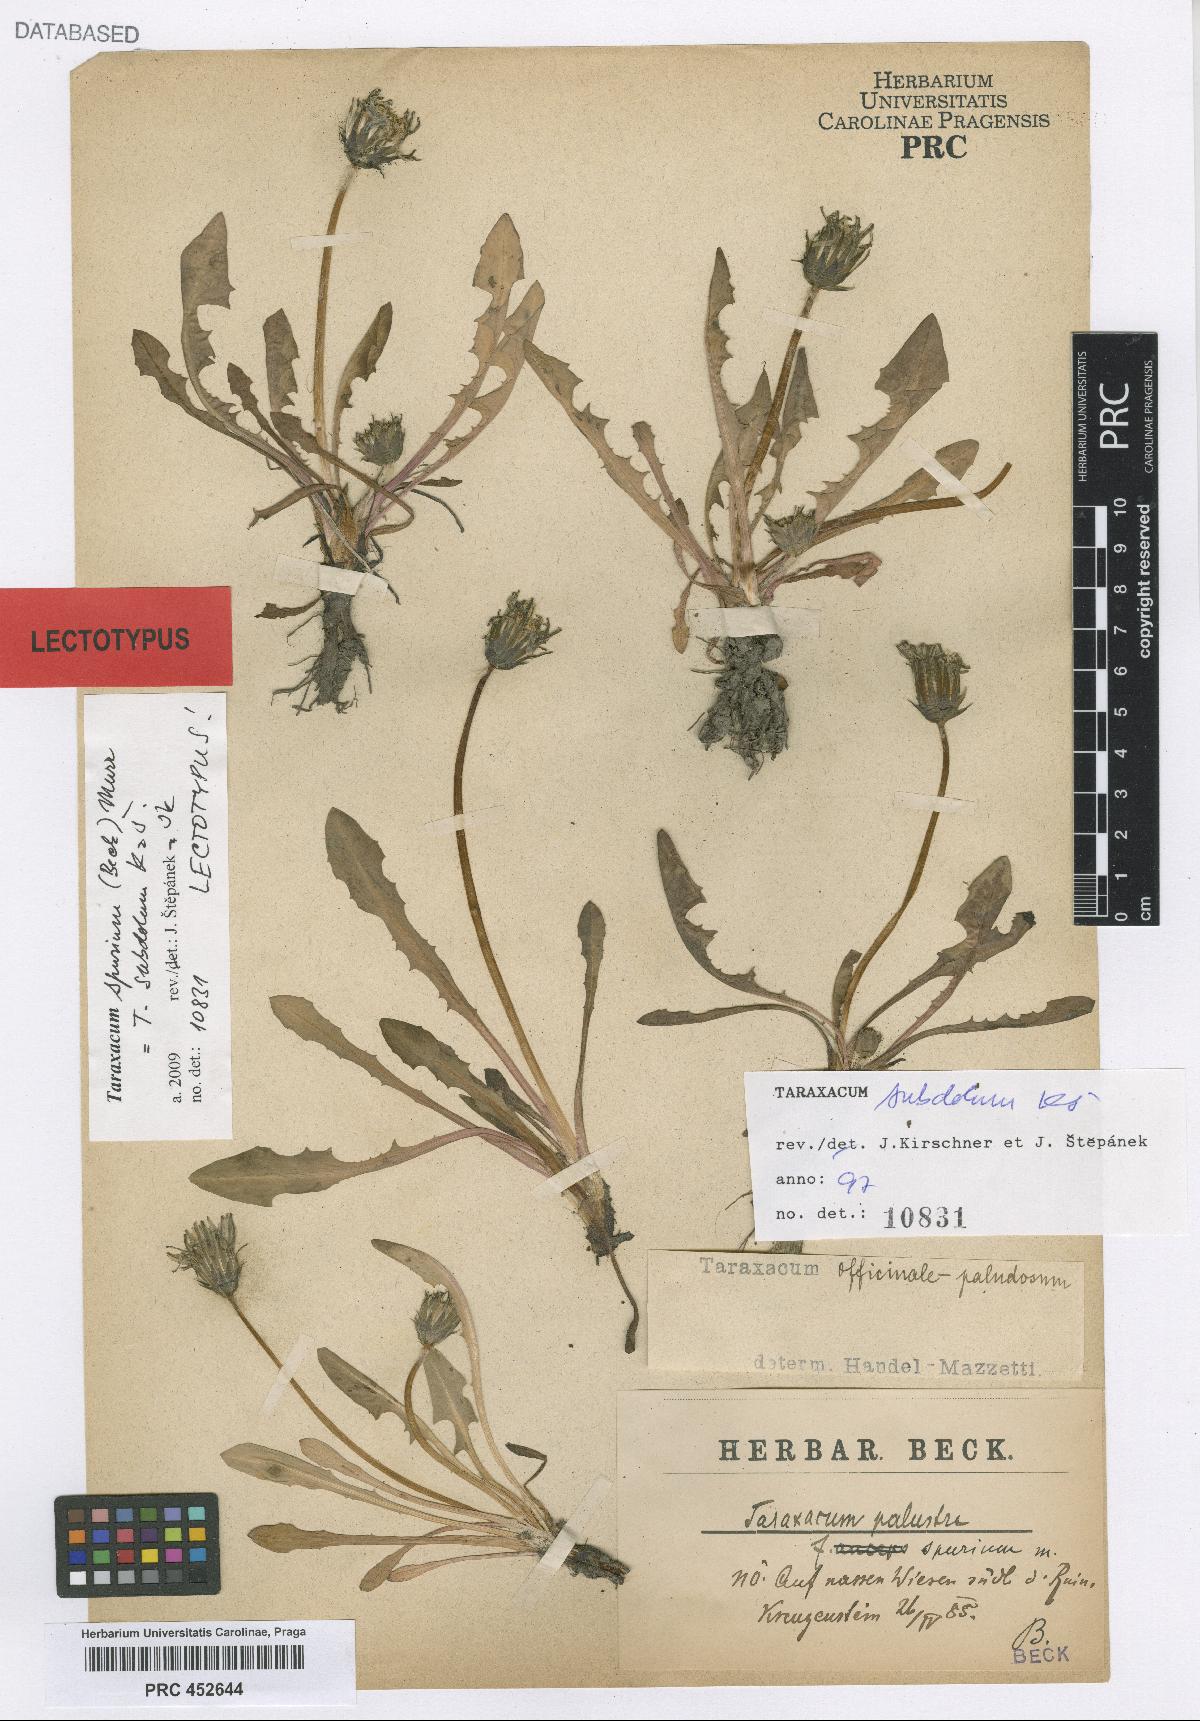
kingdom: Plantae
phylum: Tracheophyta
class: Magnoliopsida
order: Asterales
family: Asteraceae
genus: Taraxacum
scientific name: Taraxacum spurium
